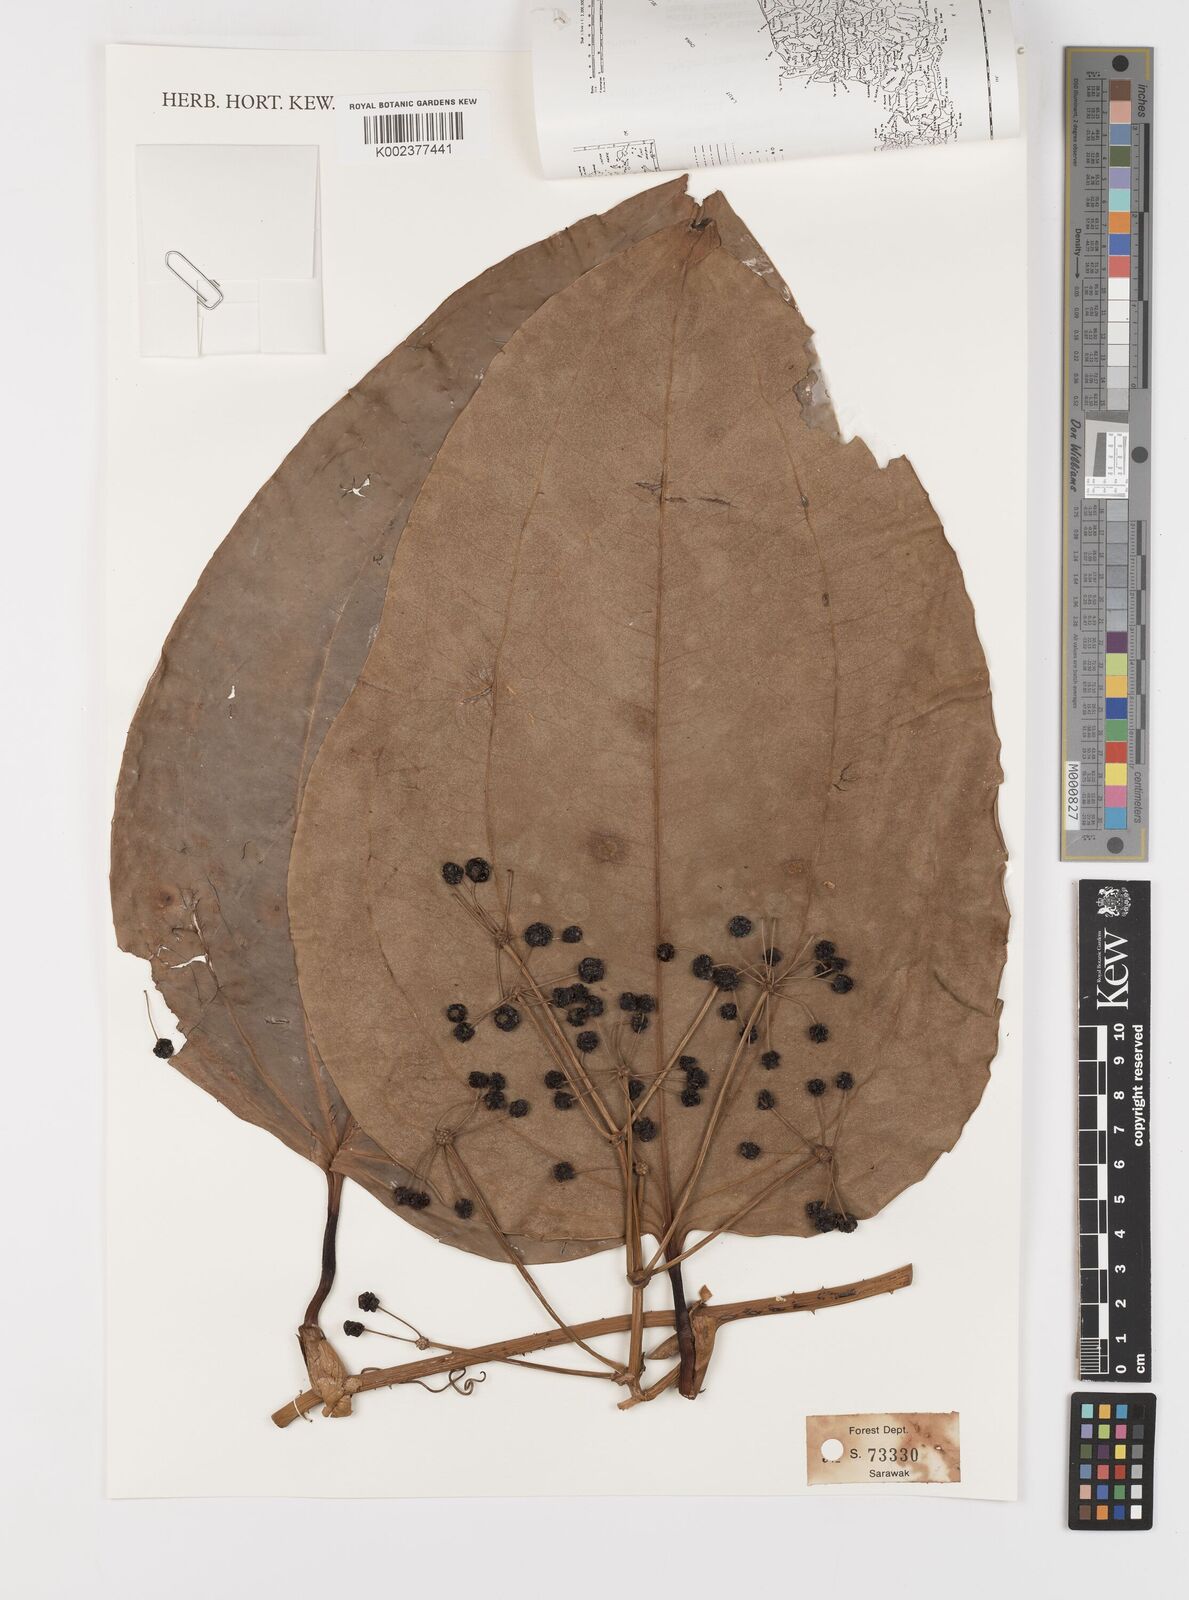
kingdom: Plantae
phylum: Tracheophyta
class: Liliopsida
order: Liliales
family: Smilacaceae
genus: Smilax
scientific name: Smilax borneensis
